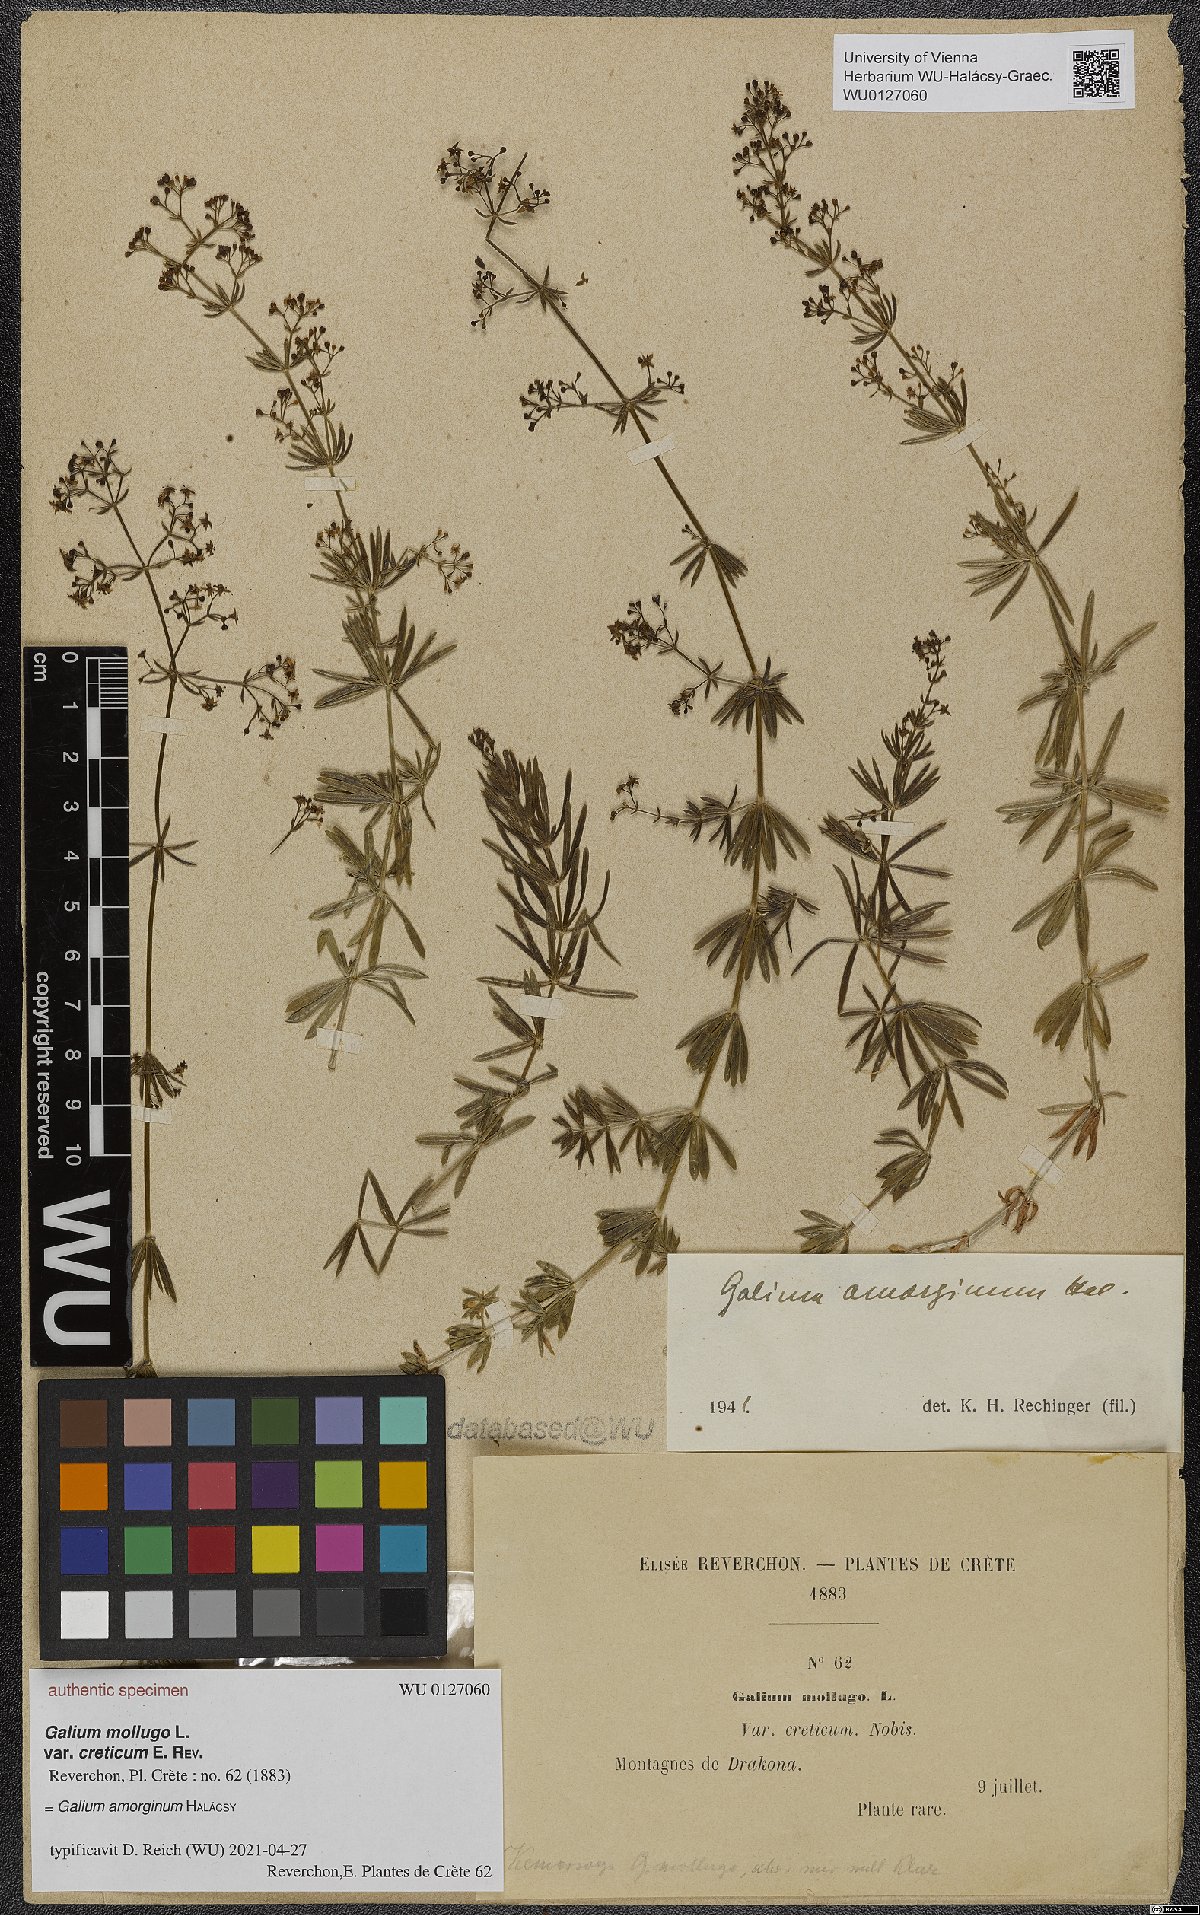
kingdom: Plantae
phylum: Tracheophyta
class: Magnoliopsida
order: Gentianales
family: Rubiaceae
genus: Galium
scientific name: Galium mollugo
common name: Hedge bedstraw
